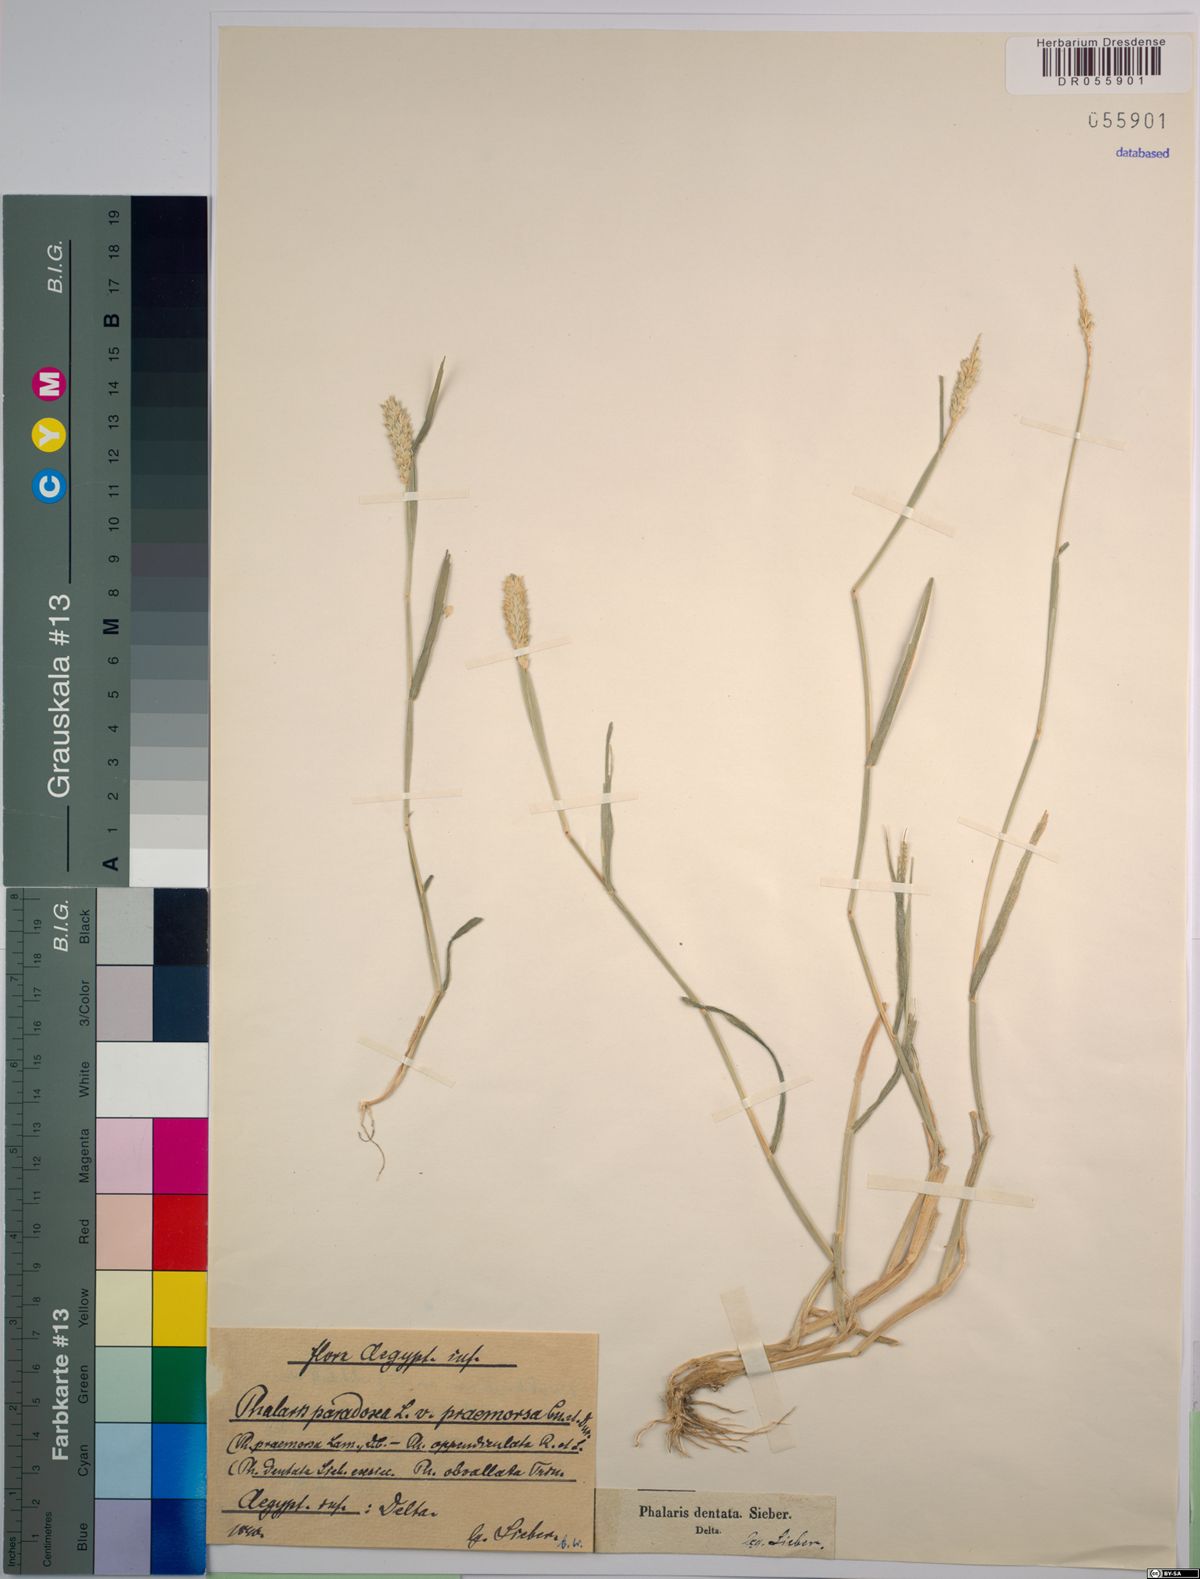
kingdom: Plantae
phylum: Tracheophyta
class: Liliopsida
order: Poales
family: Poaceae
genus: Phalaris
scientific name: Phalaris paradoxa
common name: Awned canary-grass
